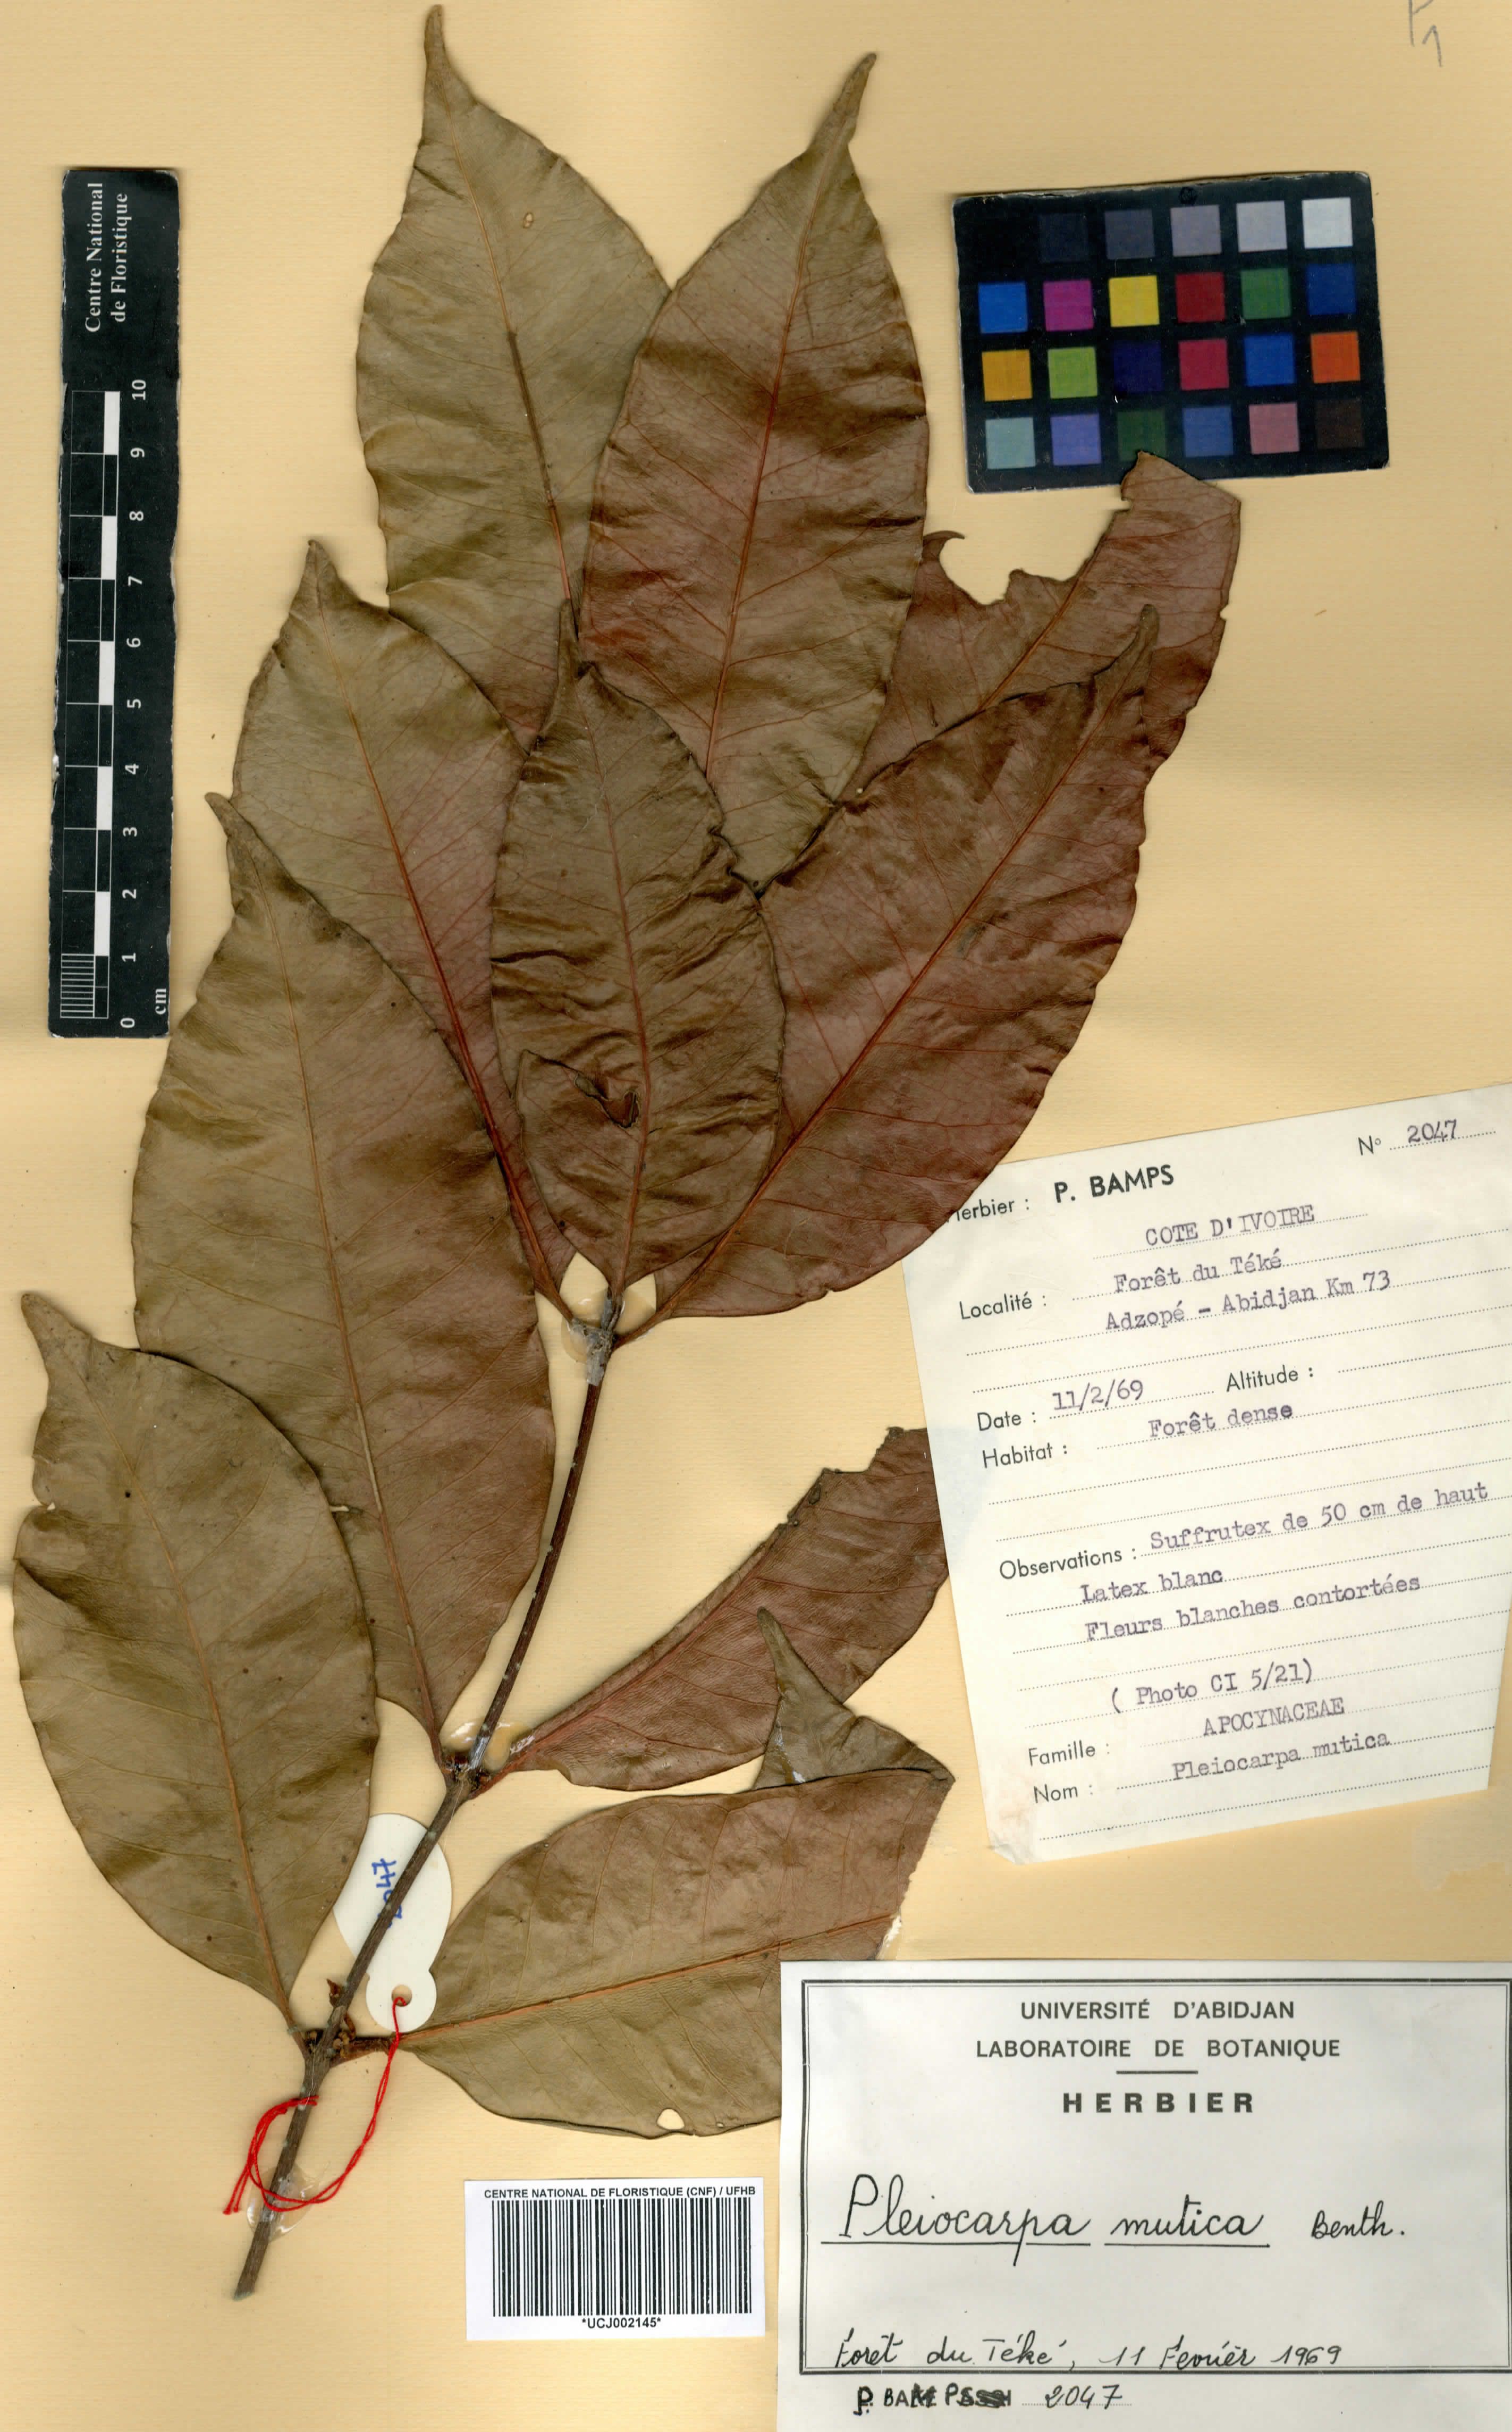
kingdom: Plantae
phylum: Tracheophyta
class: Magnoliopsida
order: Gentianales
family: Apocynaceae
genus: Pleiocarpa
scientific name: Pleiocarpa mutica
